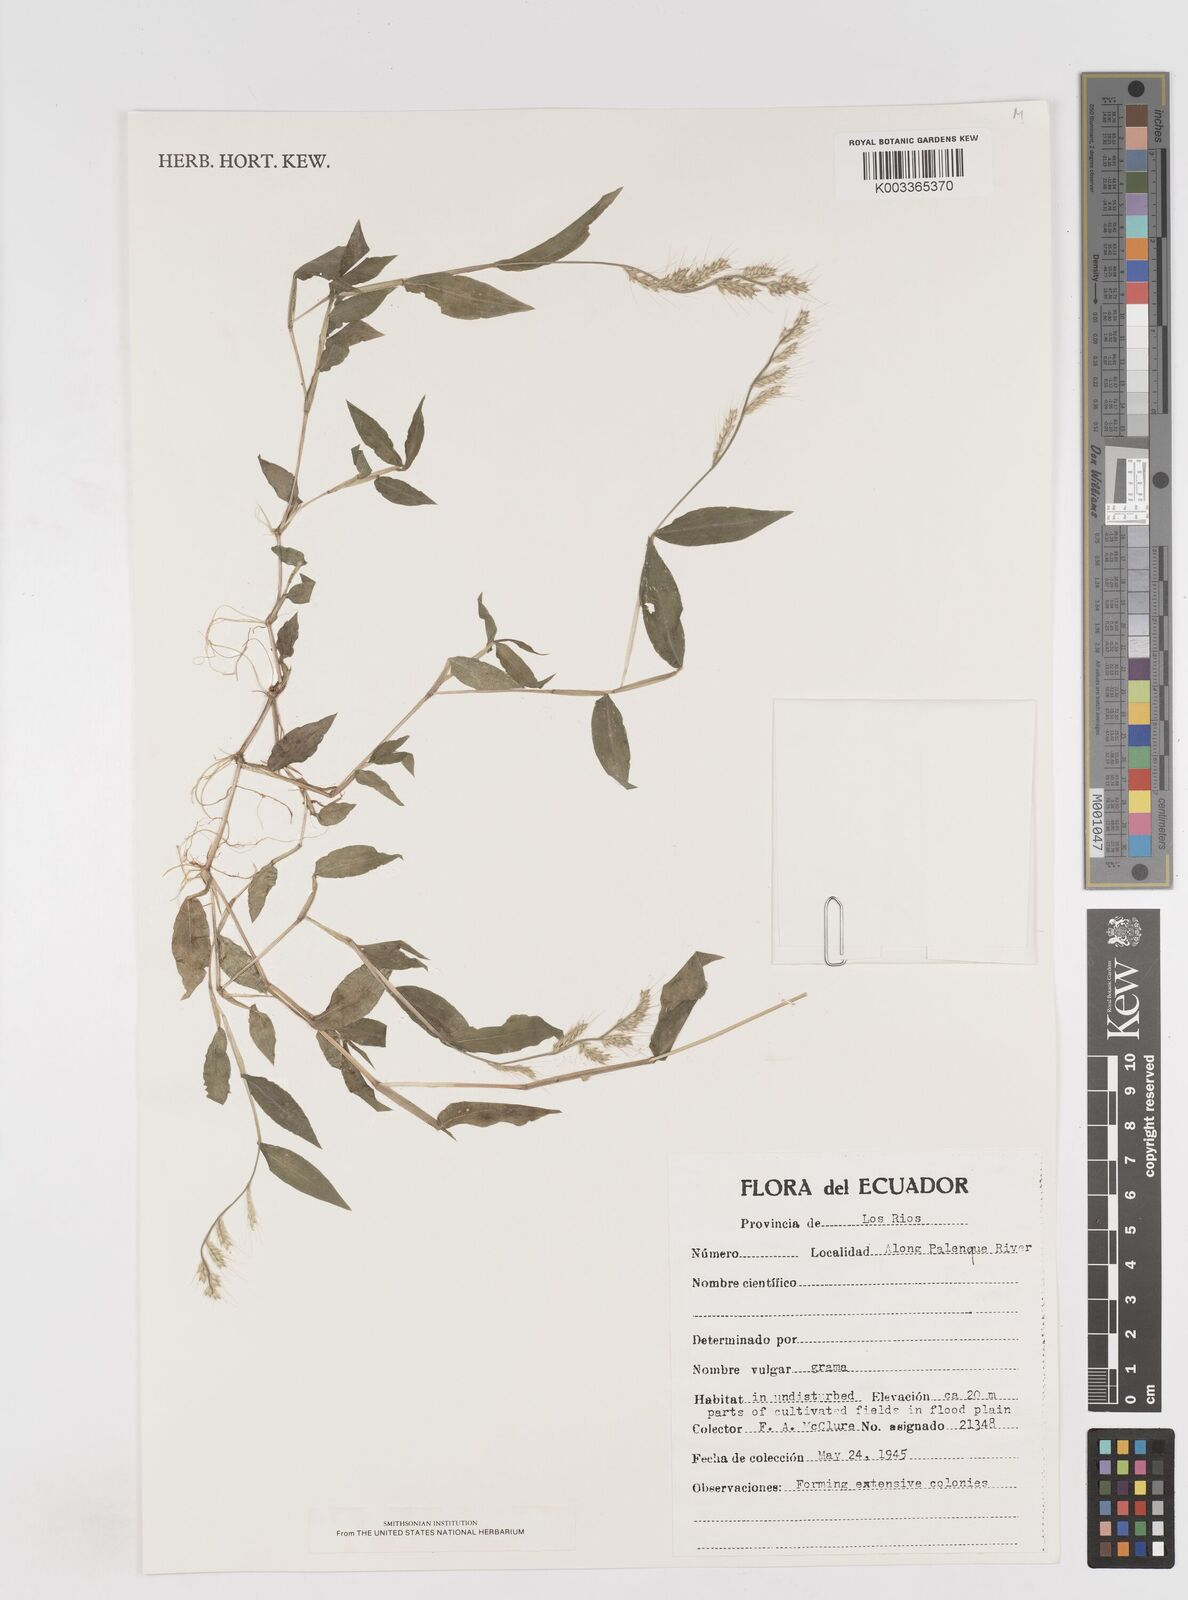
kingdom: Plantae
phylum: Tracheophyta
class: Liliopsida
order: Poales
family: Poaceae
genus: Oplismenus
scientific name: Oplismenus burmanni
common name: Burmann's basketgrass
